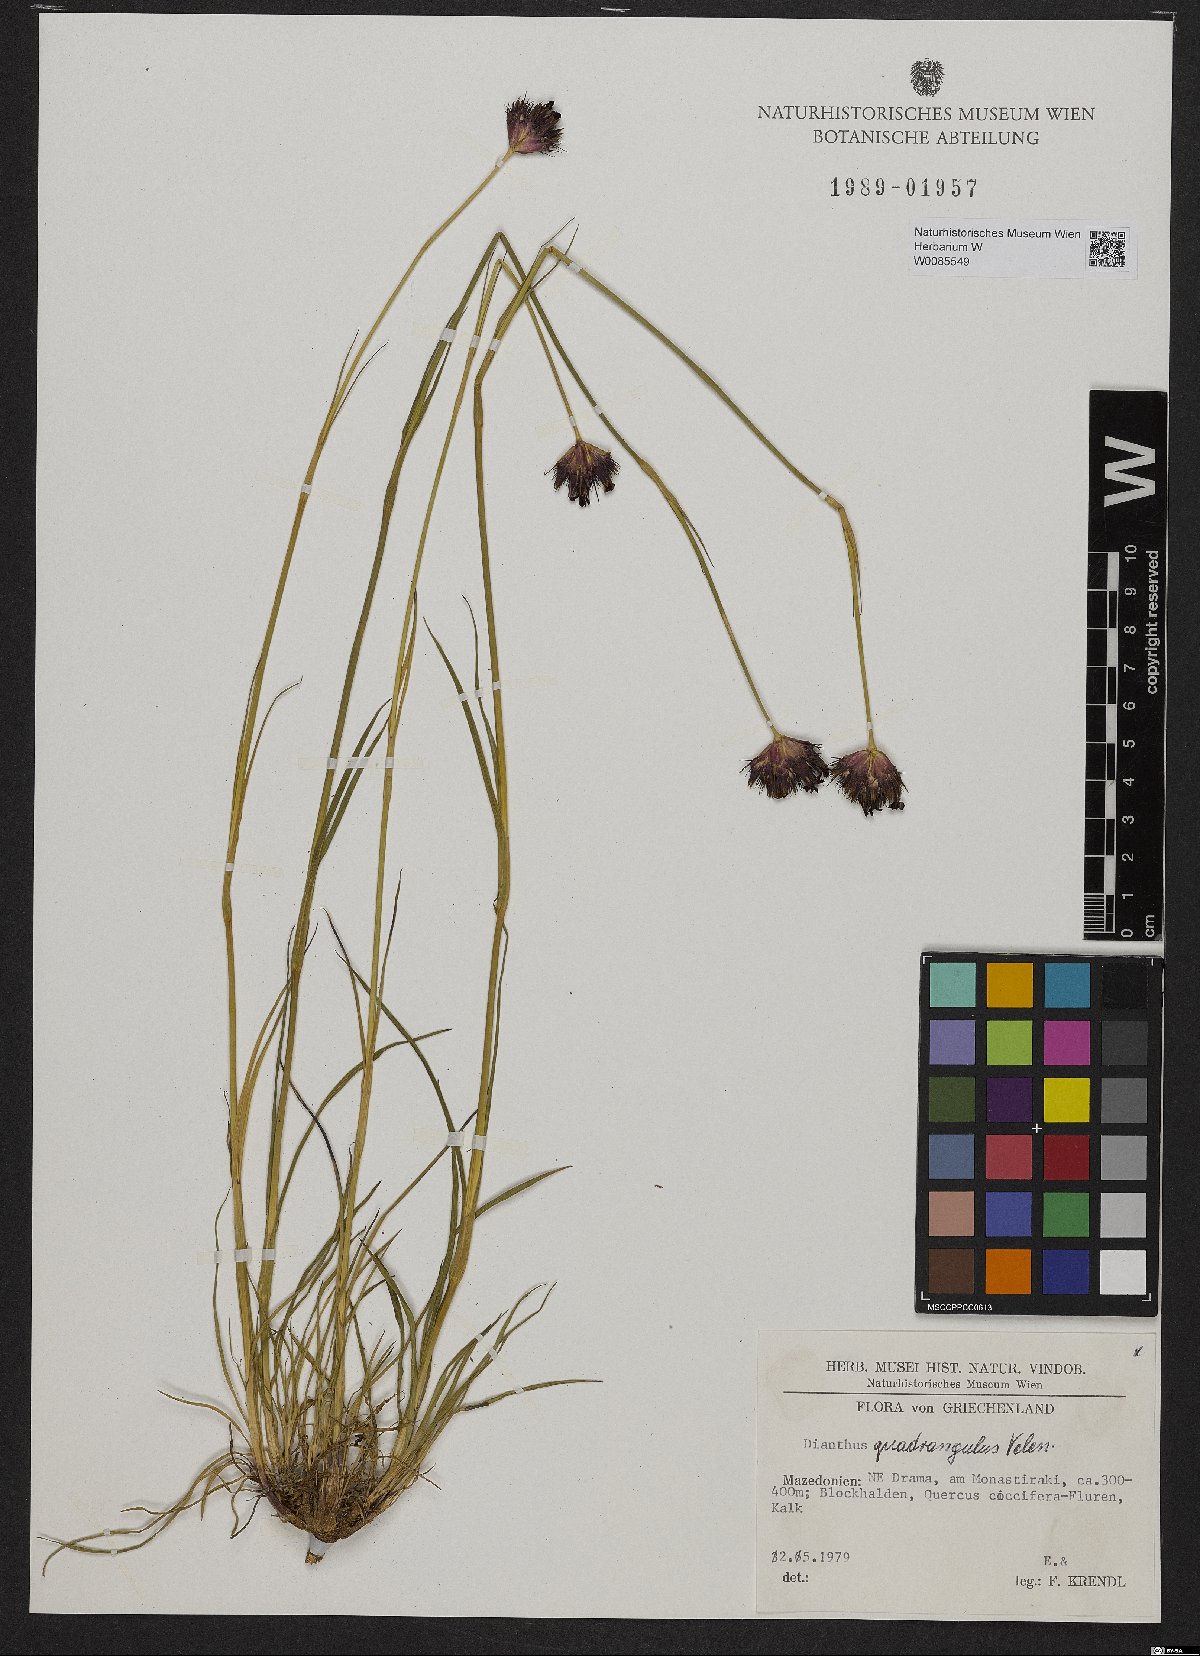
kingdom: Plantae
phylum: Tracheophyta
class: Magnoliopsida
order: Caryophyllales
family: Caryophyllaceae
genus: Dianthus
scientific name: Dianthus cruentus
